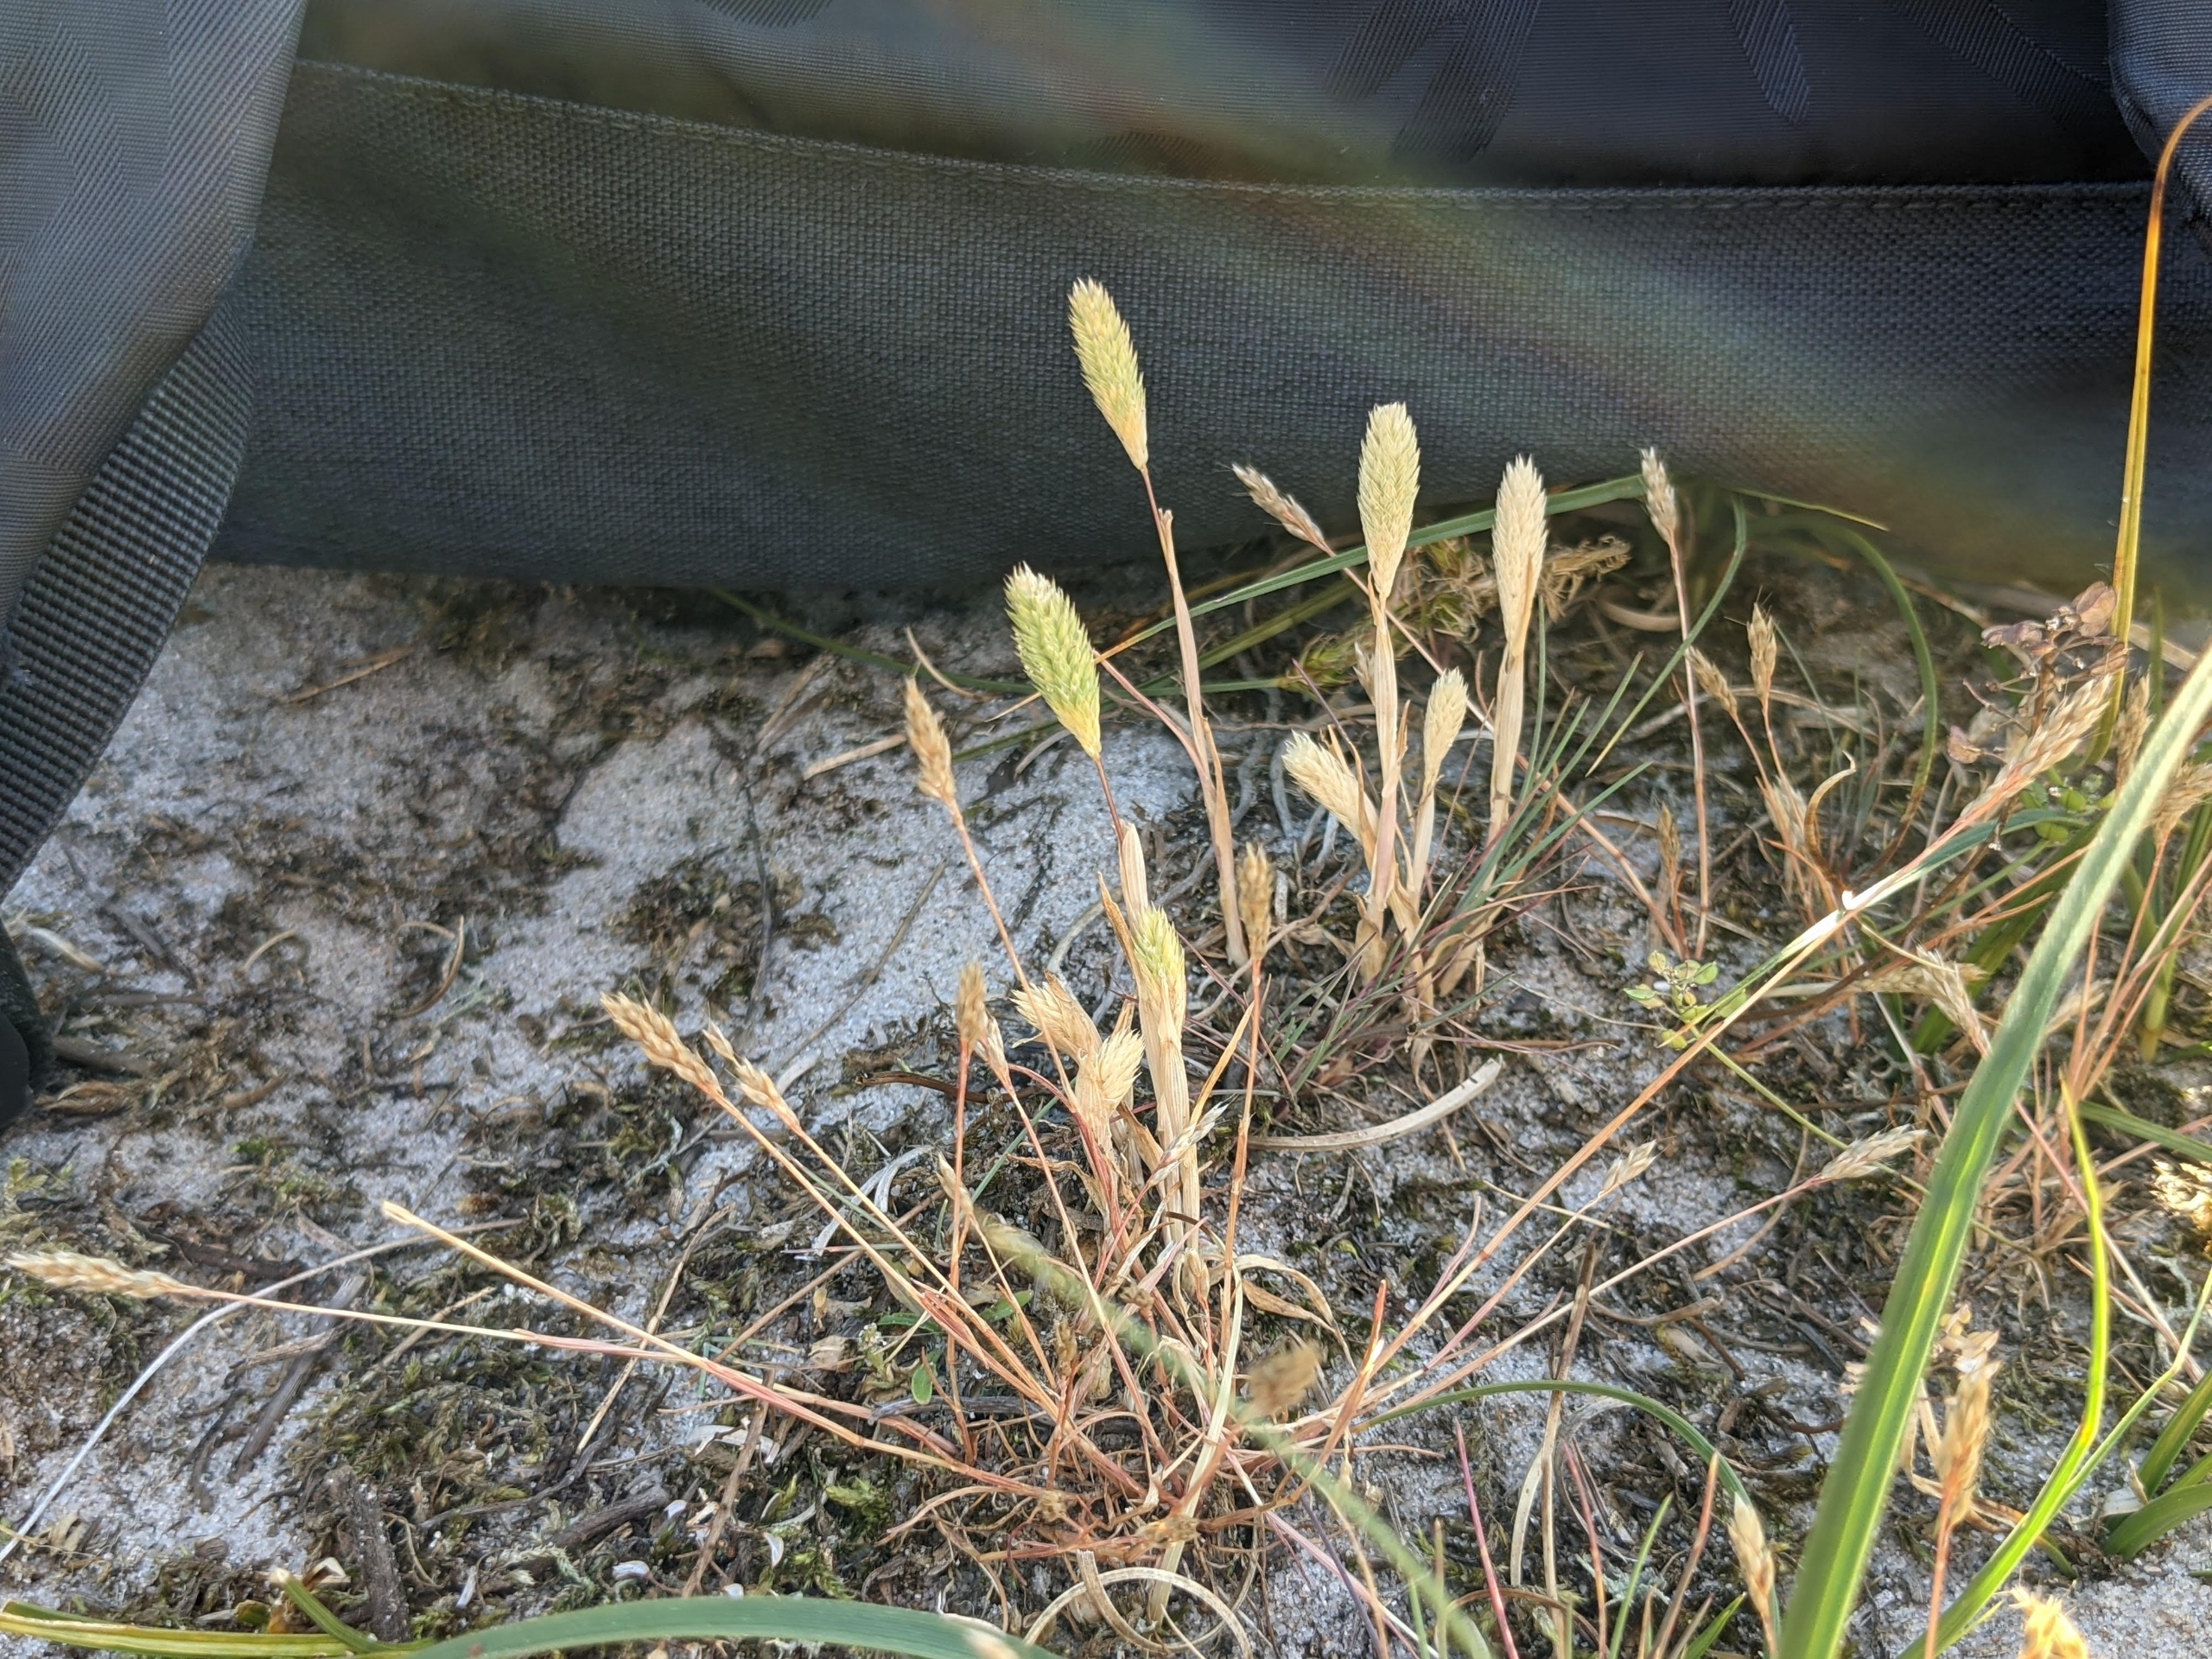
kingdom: Plantae
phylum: Tracheophyta
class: Liliopsida
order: Poales
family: Poaceae
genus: Phleum
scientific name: Phleum arenarium
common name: Sand-rottehale
